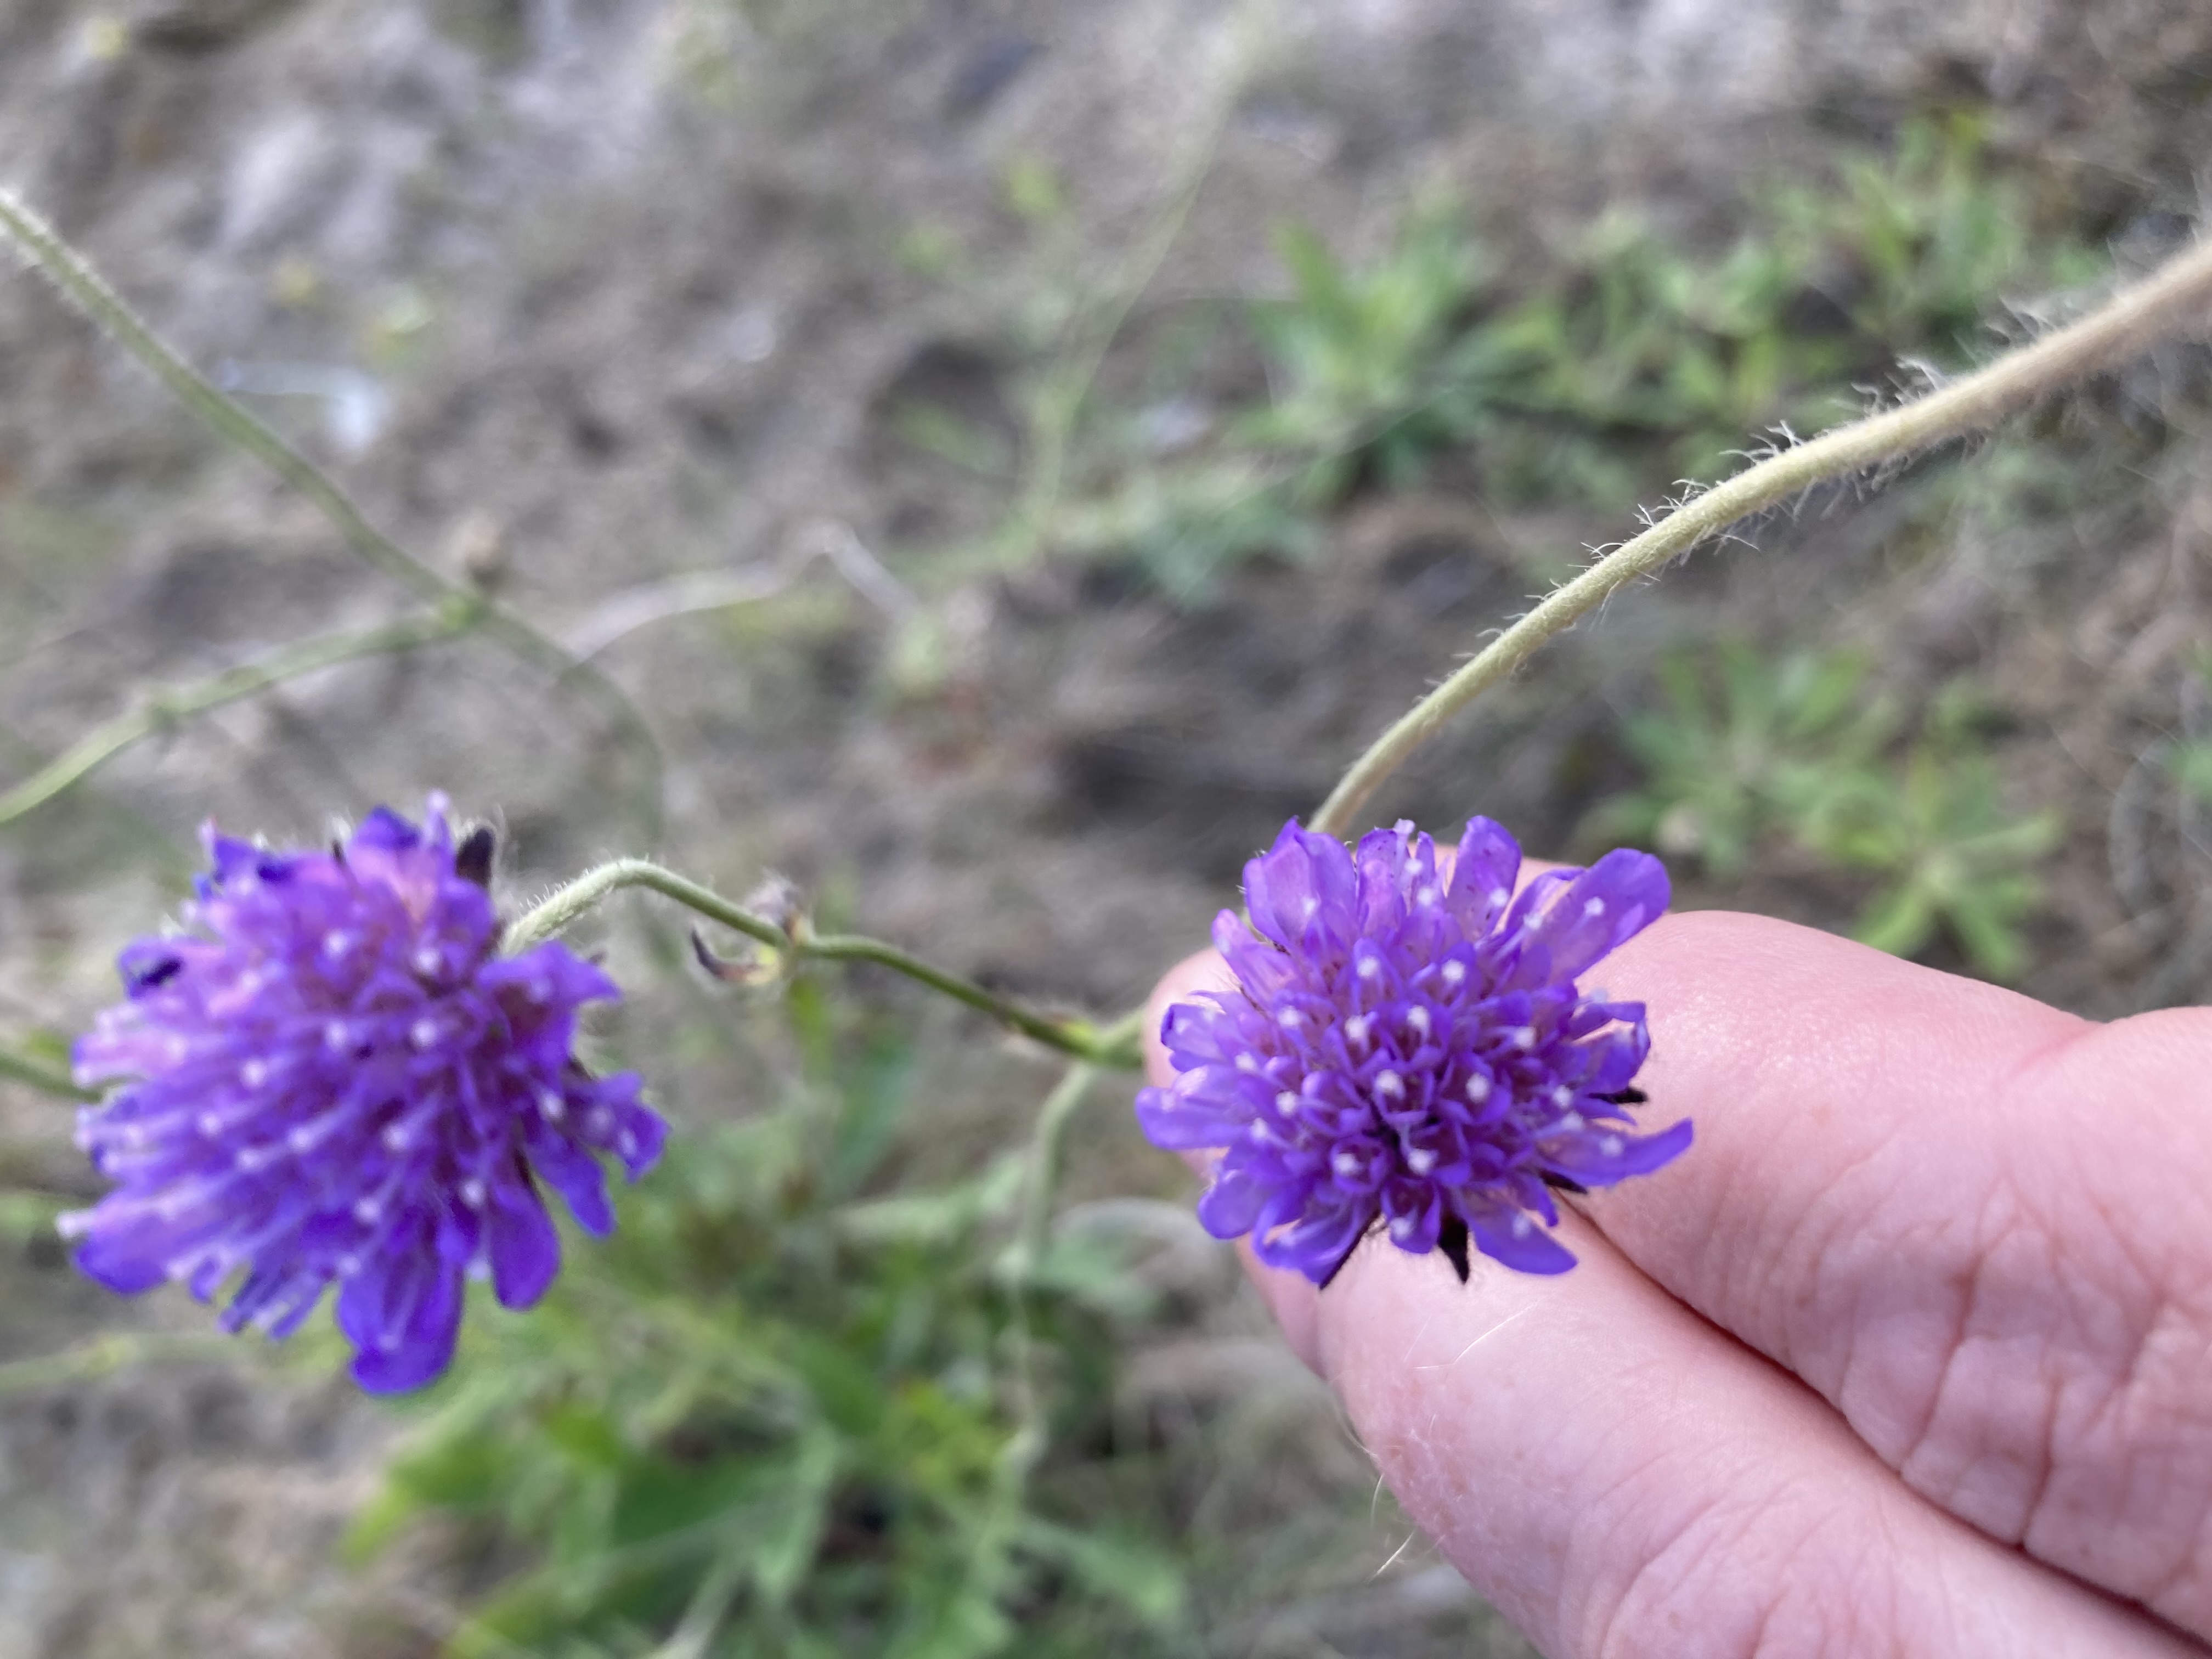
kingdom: Plantae
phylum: Tracheophyta
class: Magnoliopsida
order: Dipsacales
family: Caprifoliaceae
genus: Knautia
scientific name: Knautia arvensis
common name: Blåhat
